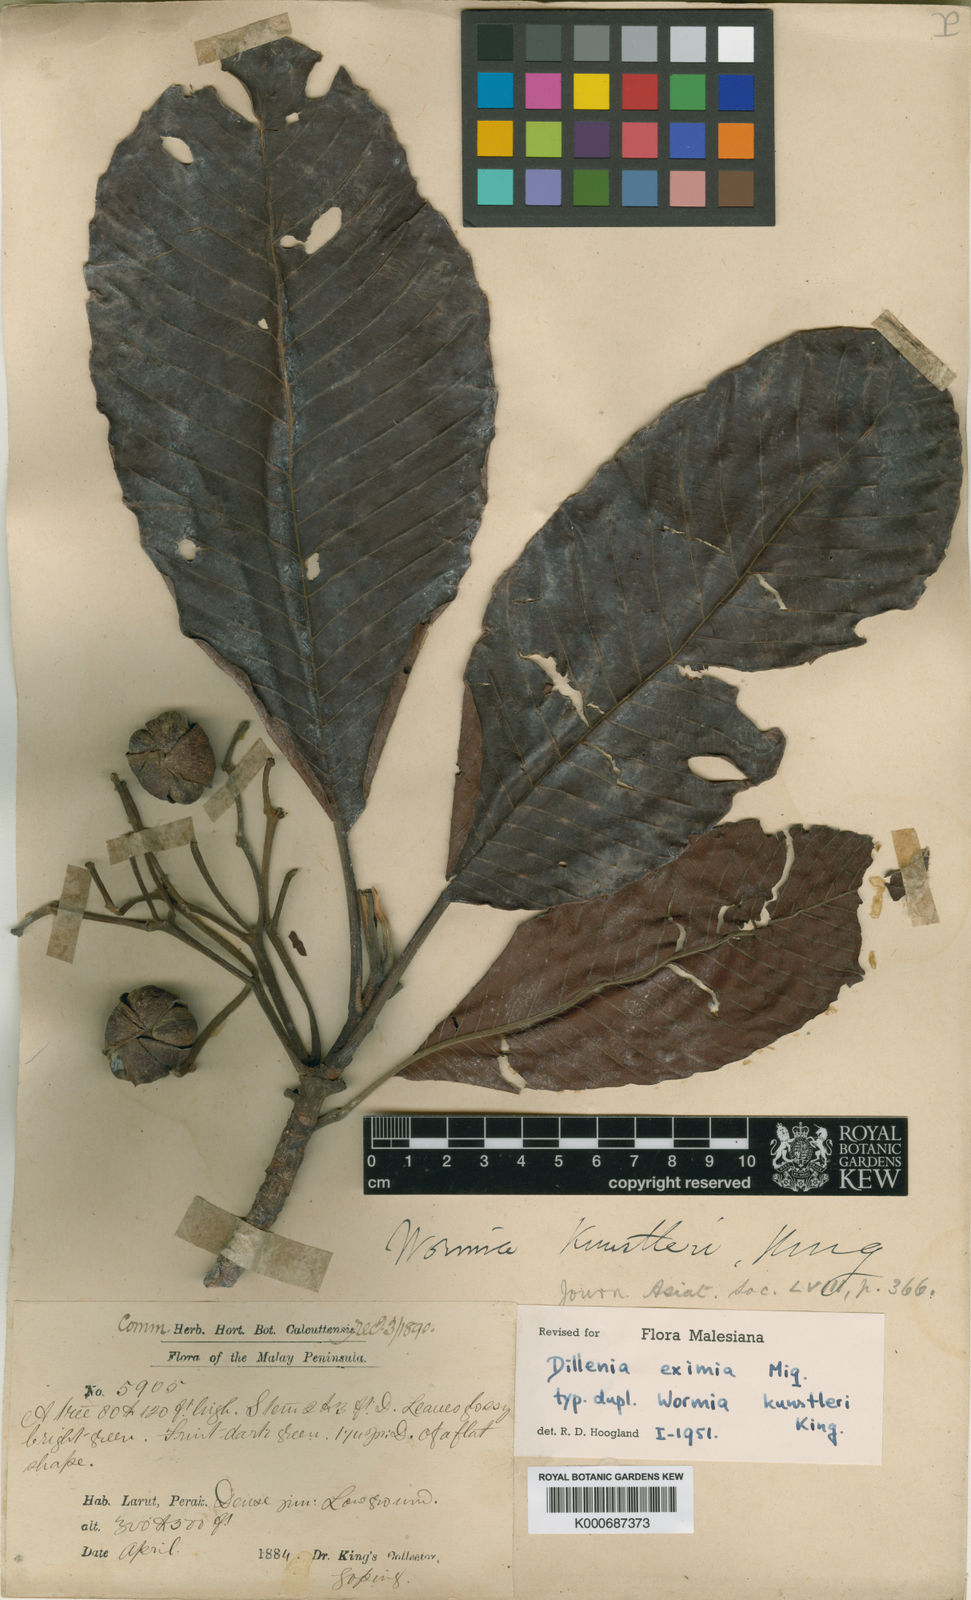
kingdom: Plantae
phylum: Tracheophyta
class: Magnoliopsida
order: Dilleniales
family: Dilleniaceae
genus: Dillenia
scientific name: Dillenia grandifolia
